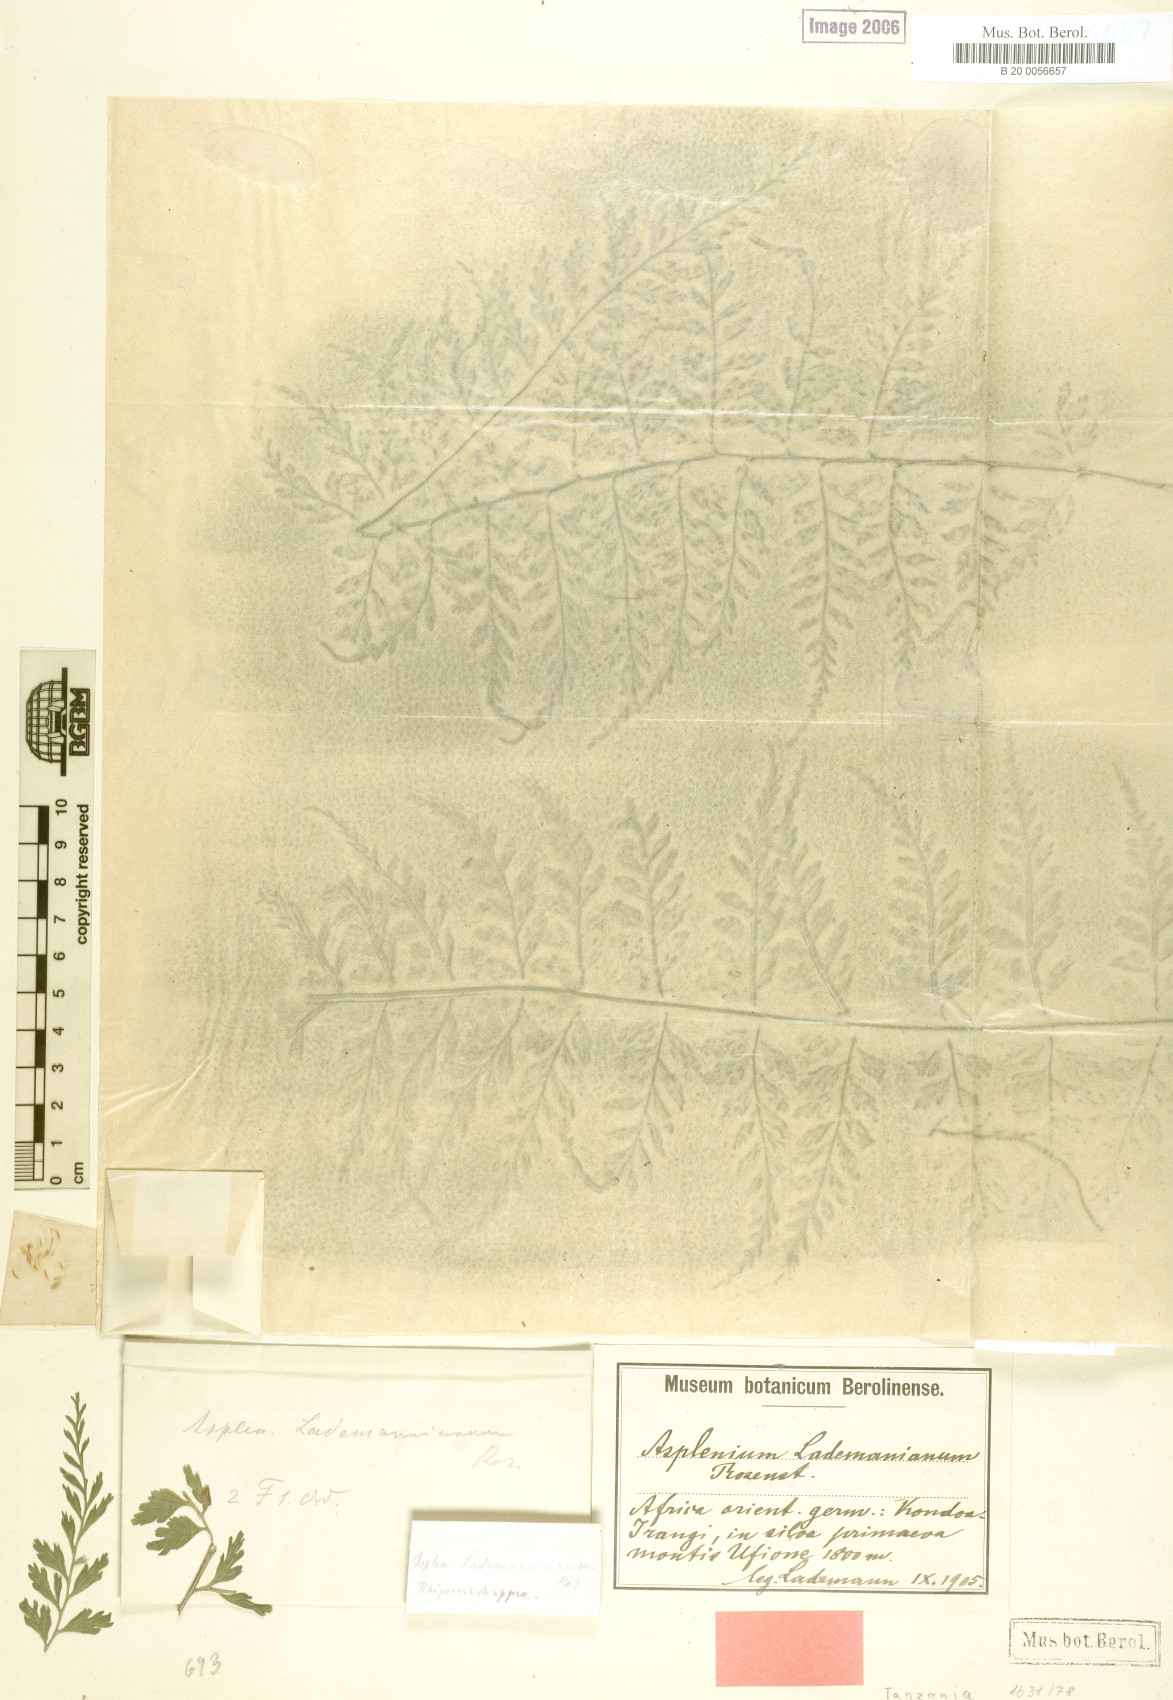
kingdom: Plantae
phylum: Tracheophyta
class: Polypodiopsida
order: Polypodiales
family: Aspleniaceae
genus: Asplenium
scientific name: Asplenium lademannianum
